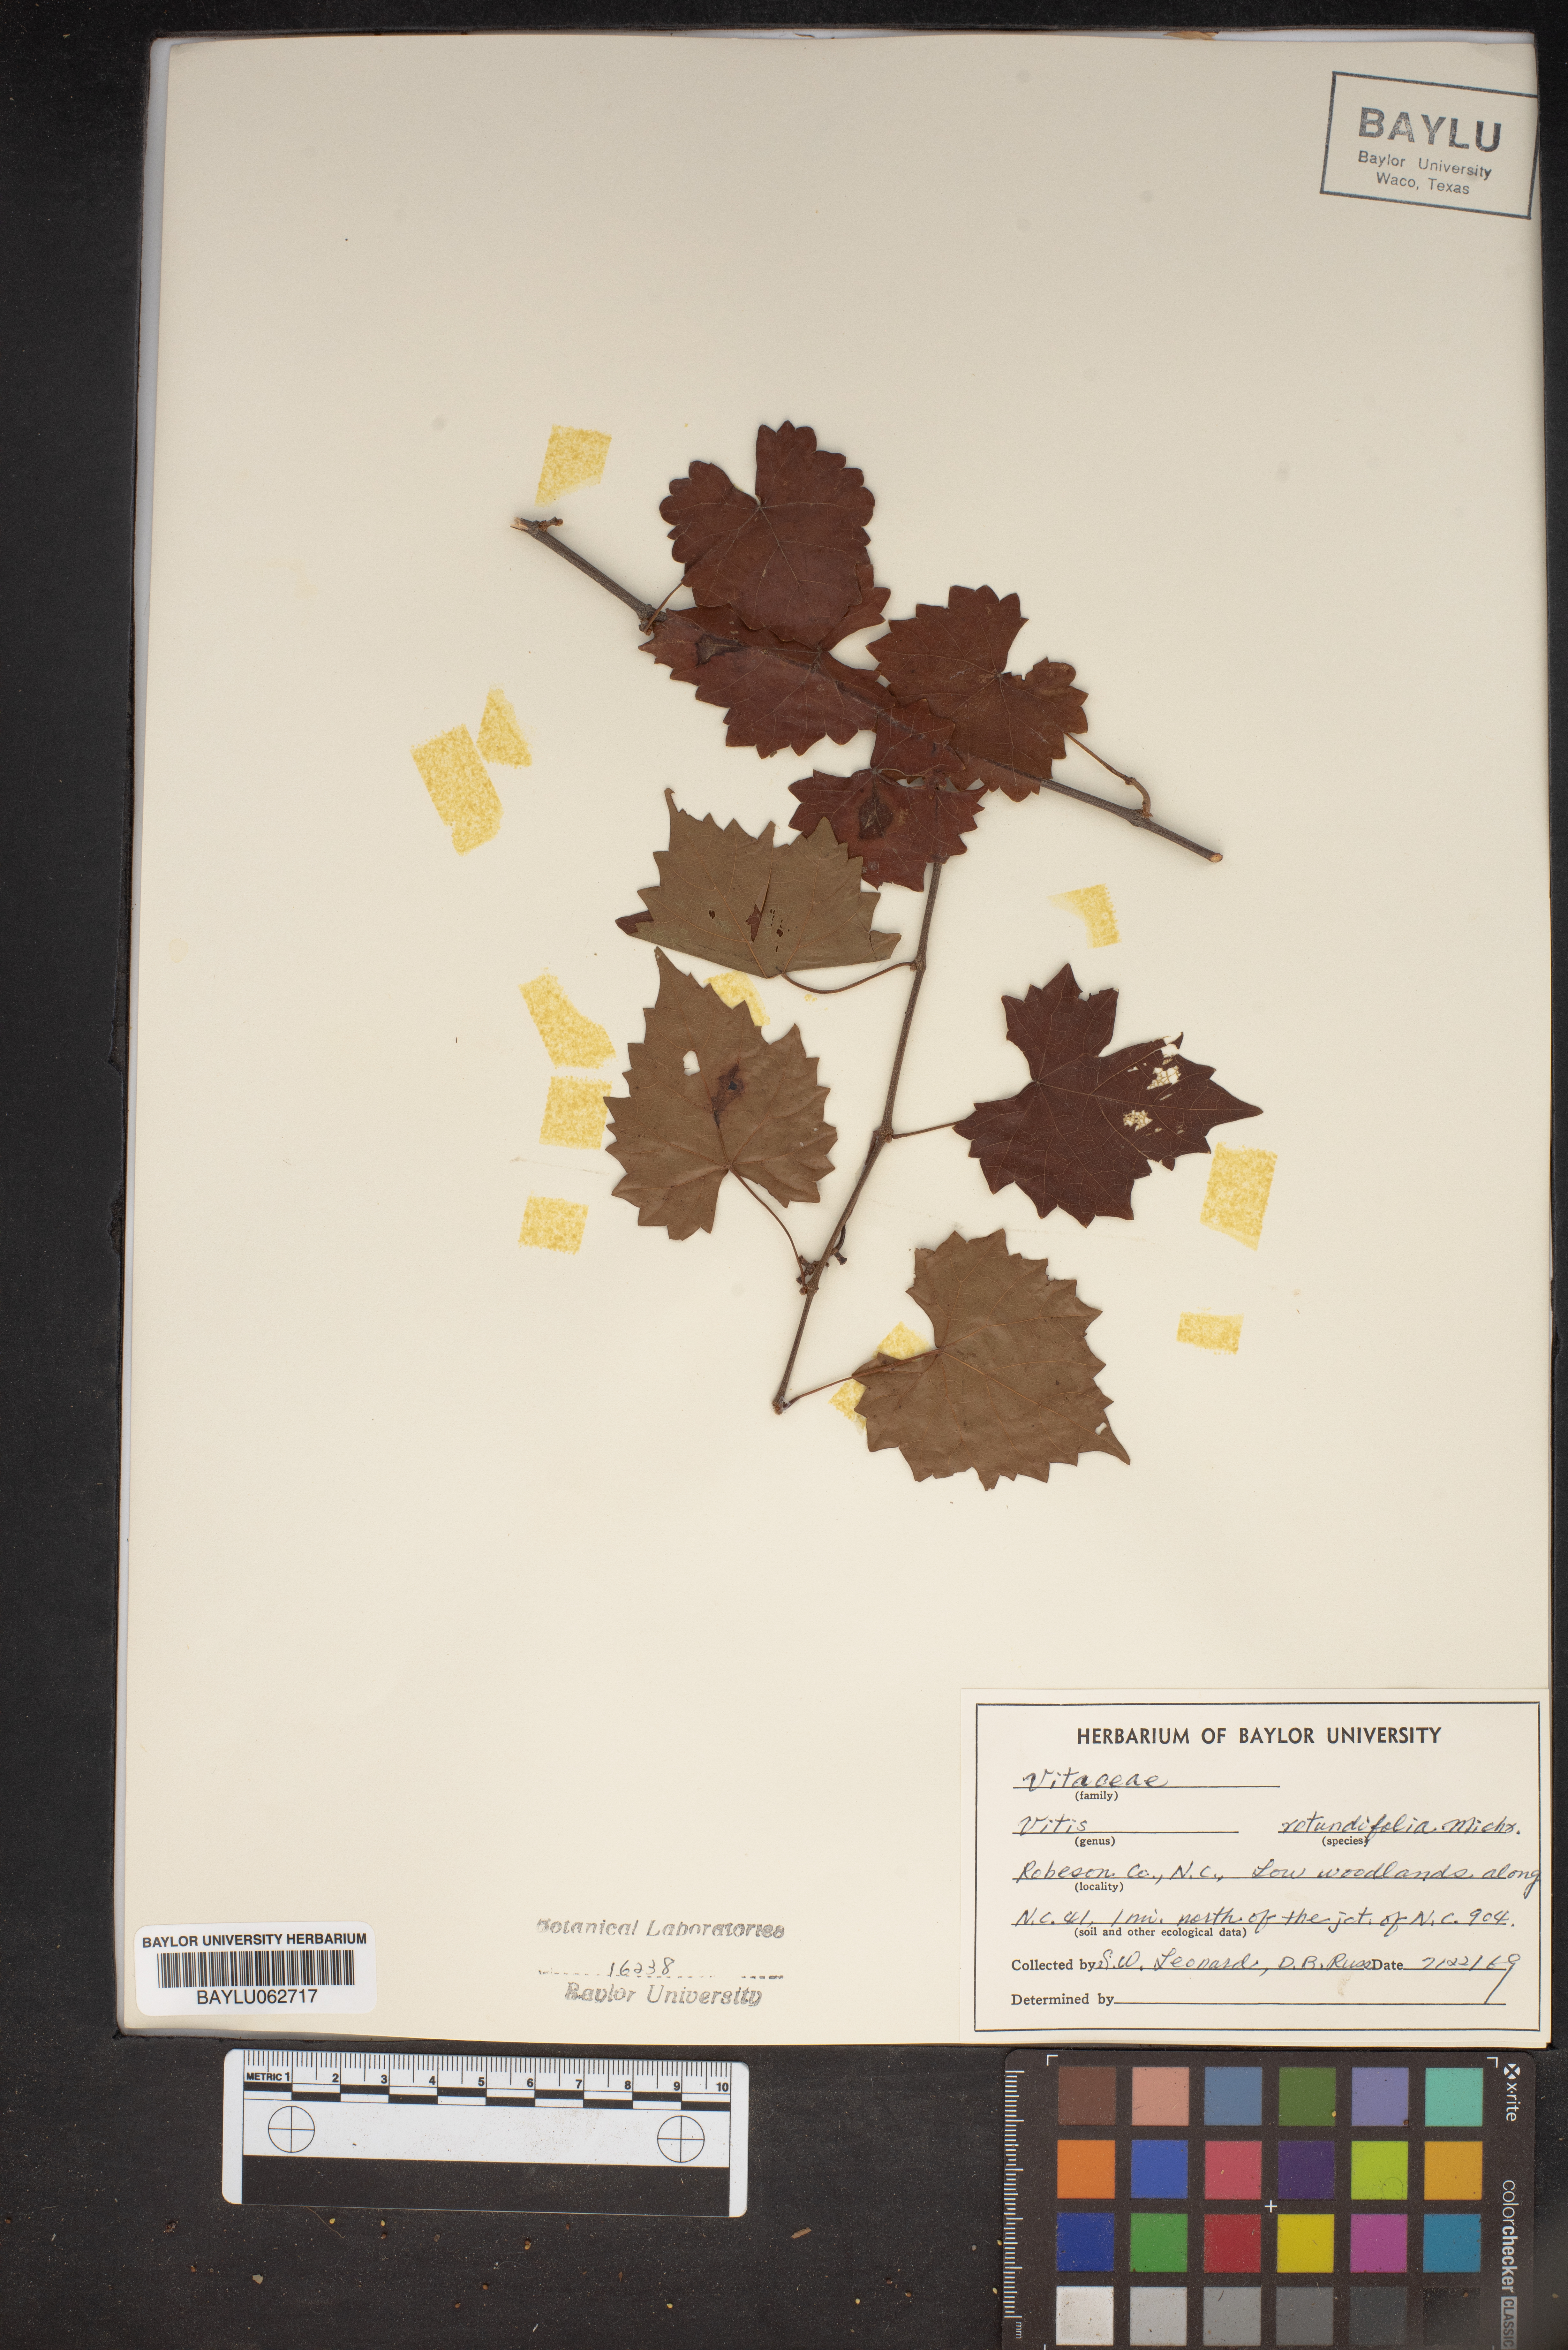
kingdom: Plantae
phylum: Tracheophyta
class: Magnoliopsida
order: Vitales
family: Vitaceae
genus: Vitis
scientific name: Vitis rotundifolia
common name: Muscadine grape
